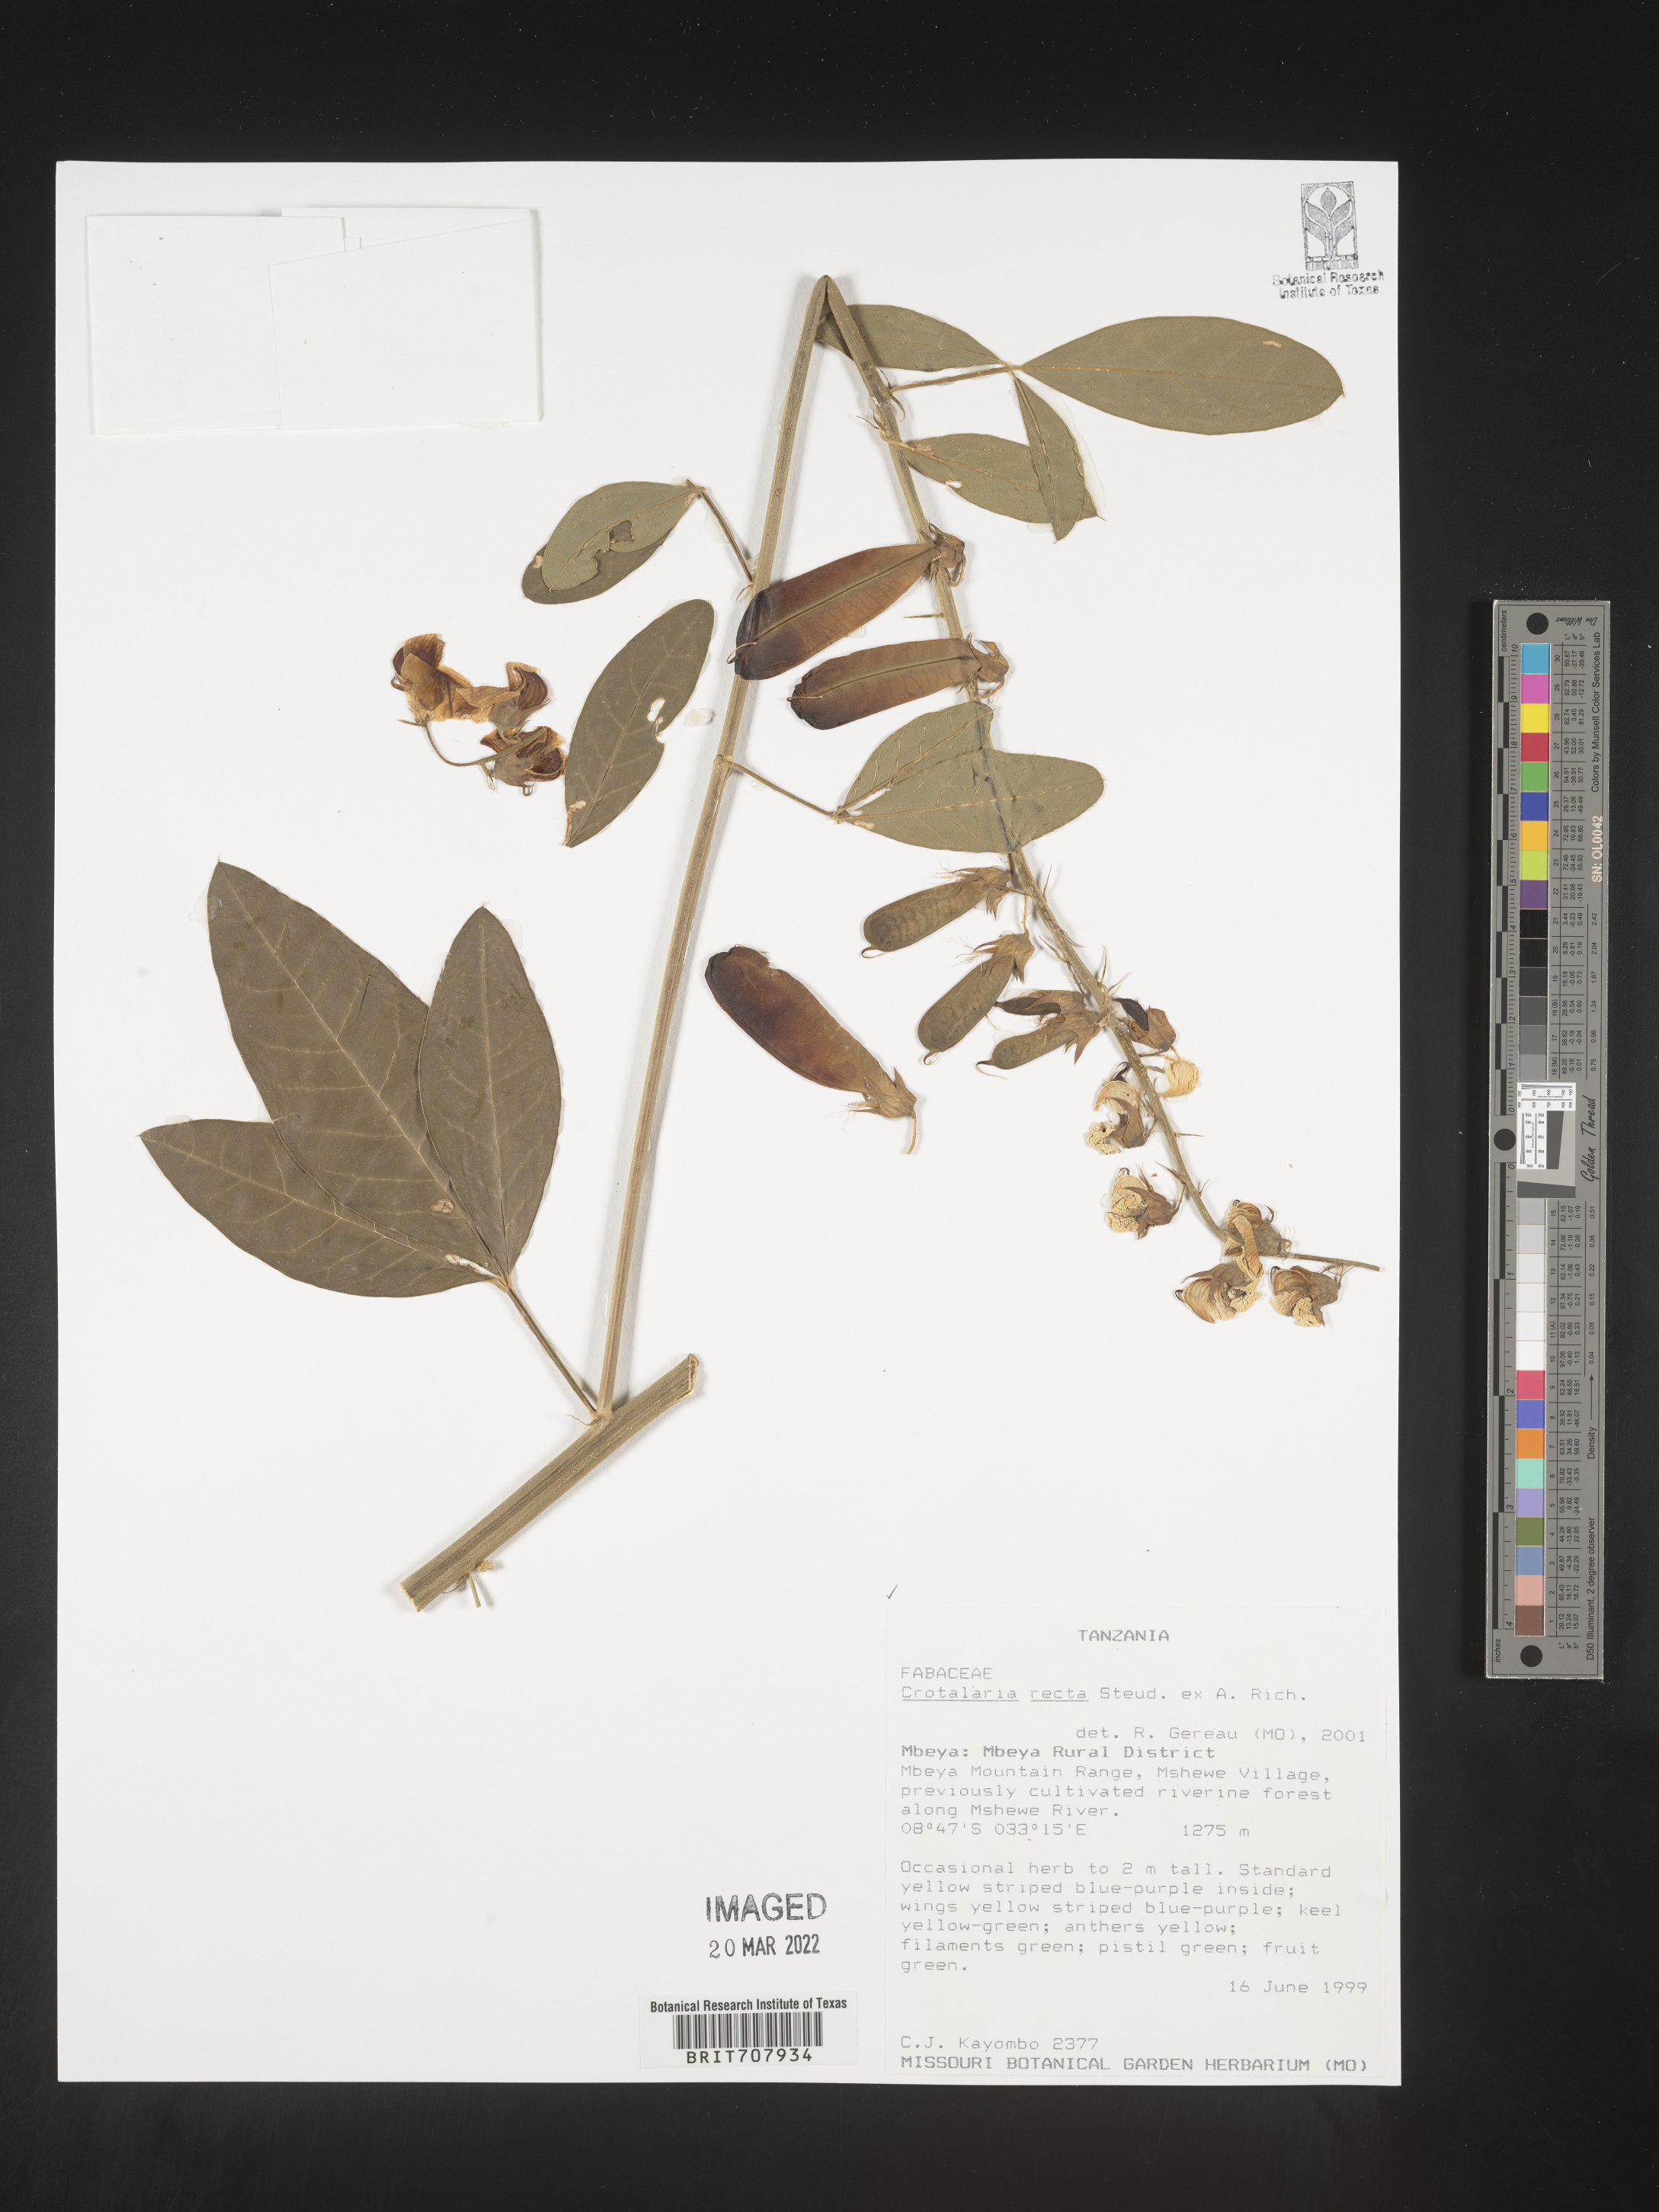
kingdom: Plantae
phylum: Tracheophyta
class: Magnoliopsida
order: Fabales
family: Fabaceae
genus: Crotalaria
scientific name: Crotalaria
